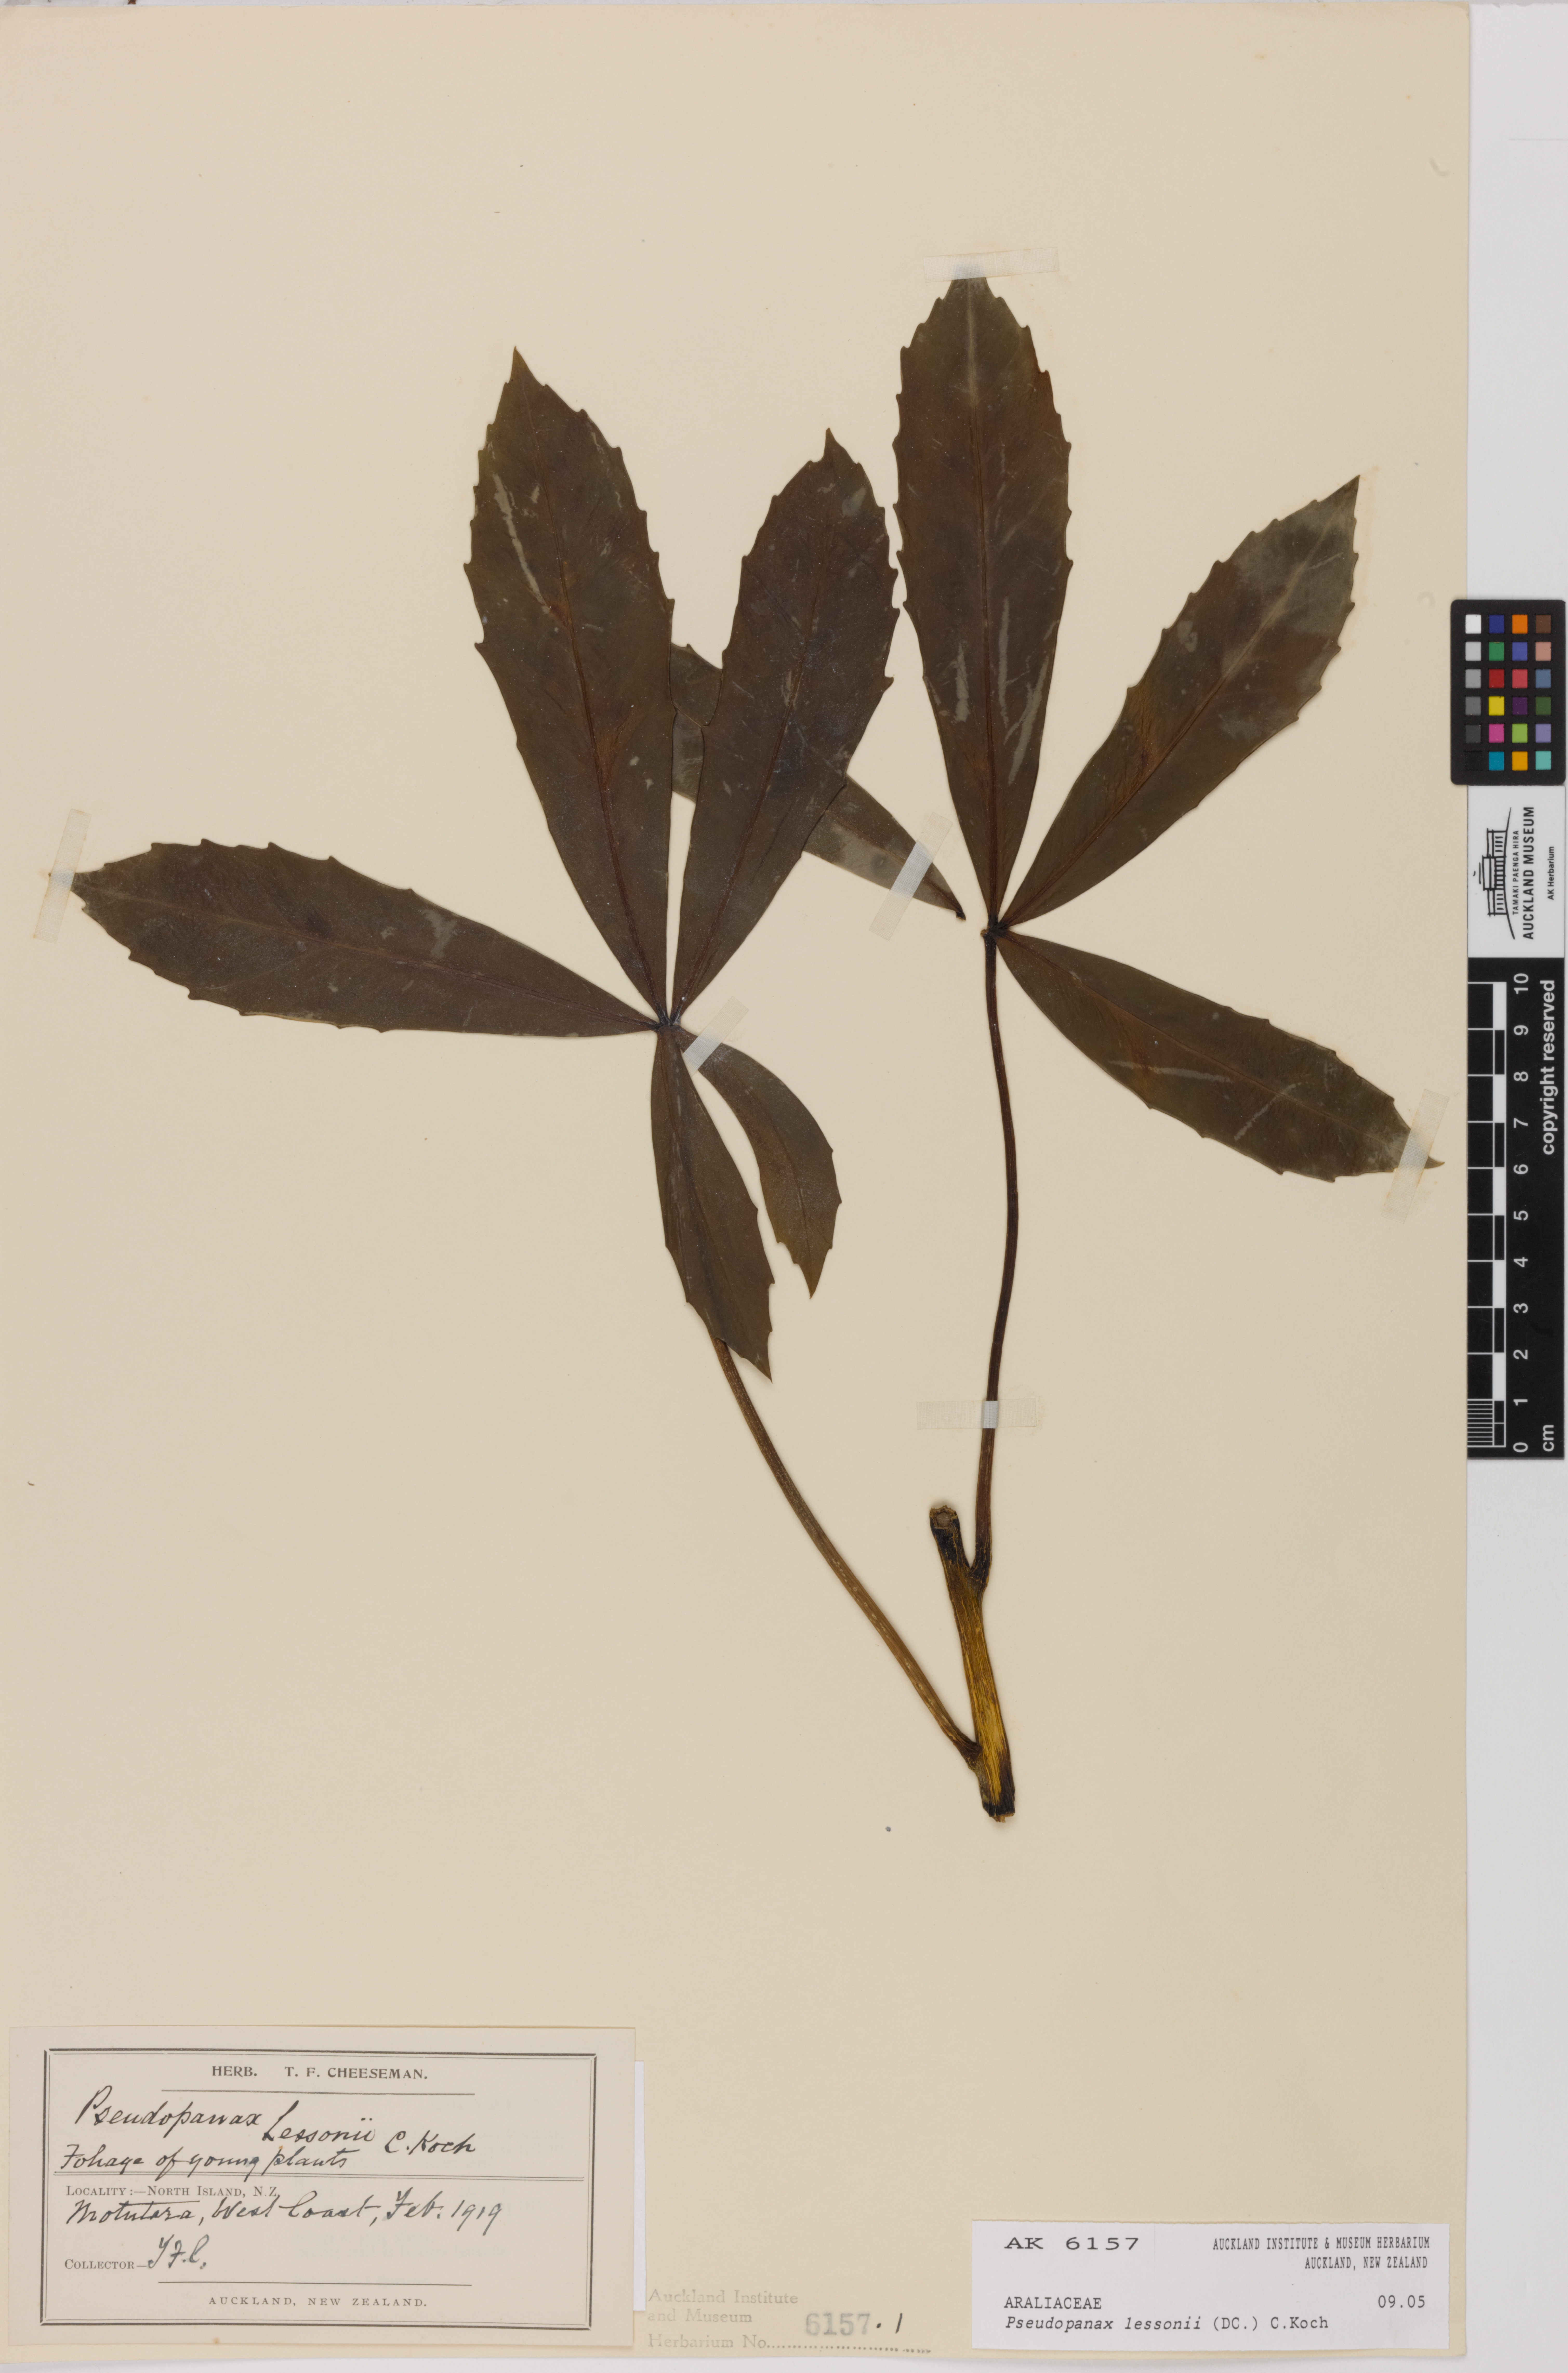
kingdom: Plantae
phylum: Tracheophyta
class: Magnoliopsida
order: Apiales
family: Araliaceae
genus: Pseudopanax
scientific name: Pseudopanax lessonii
